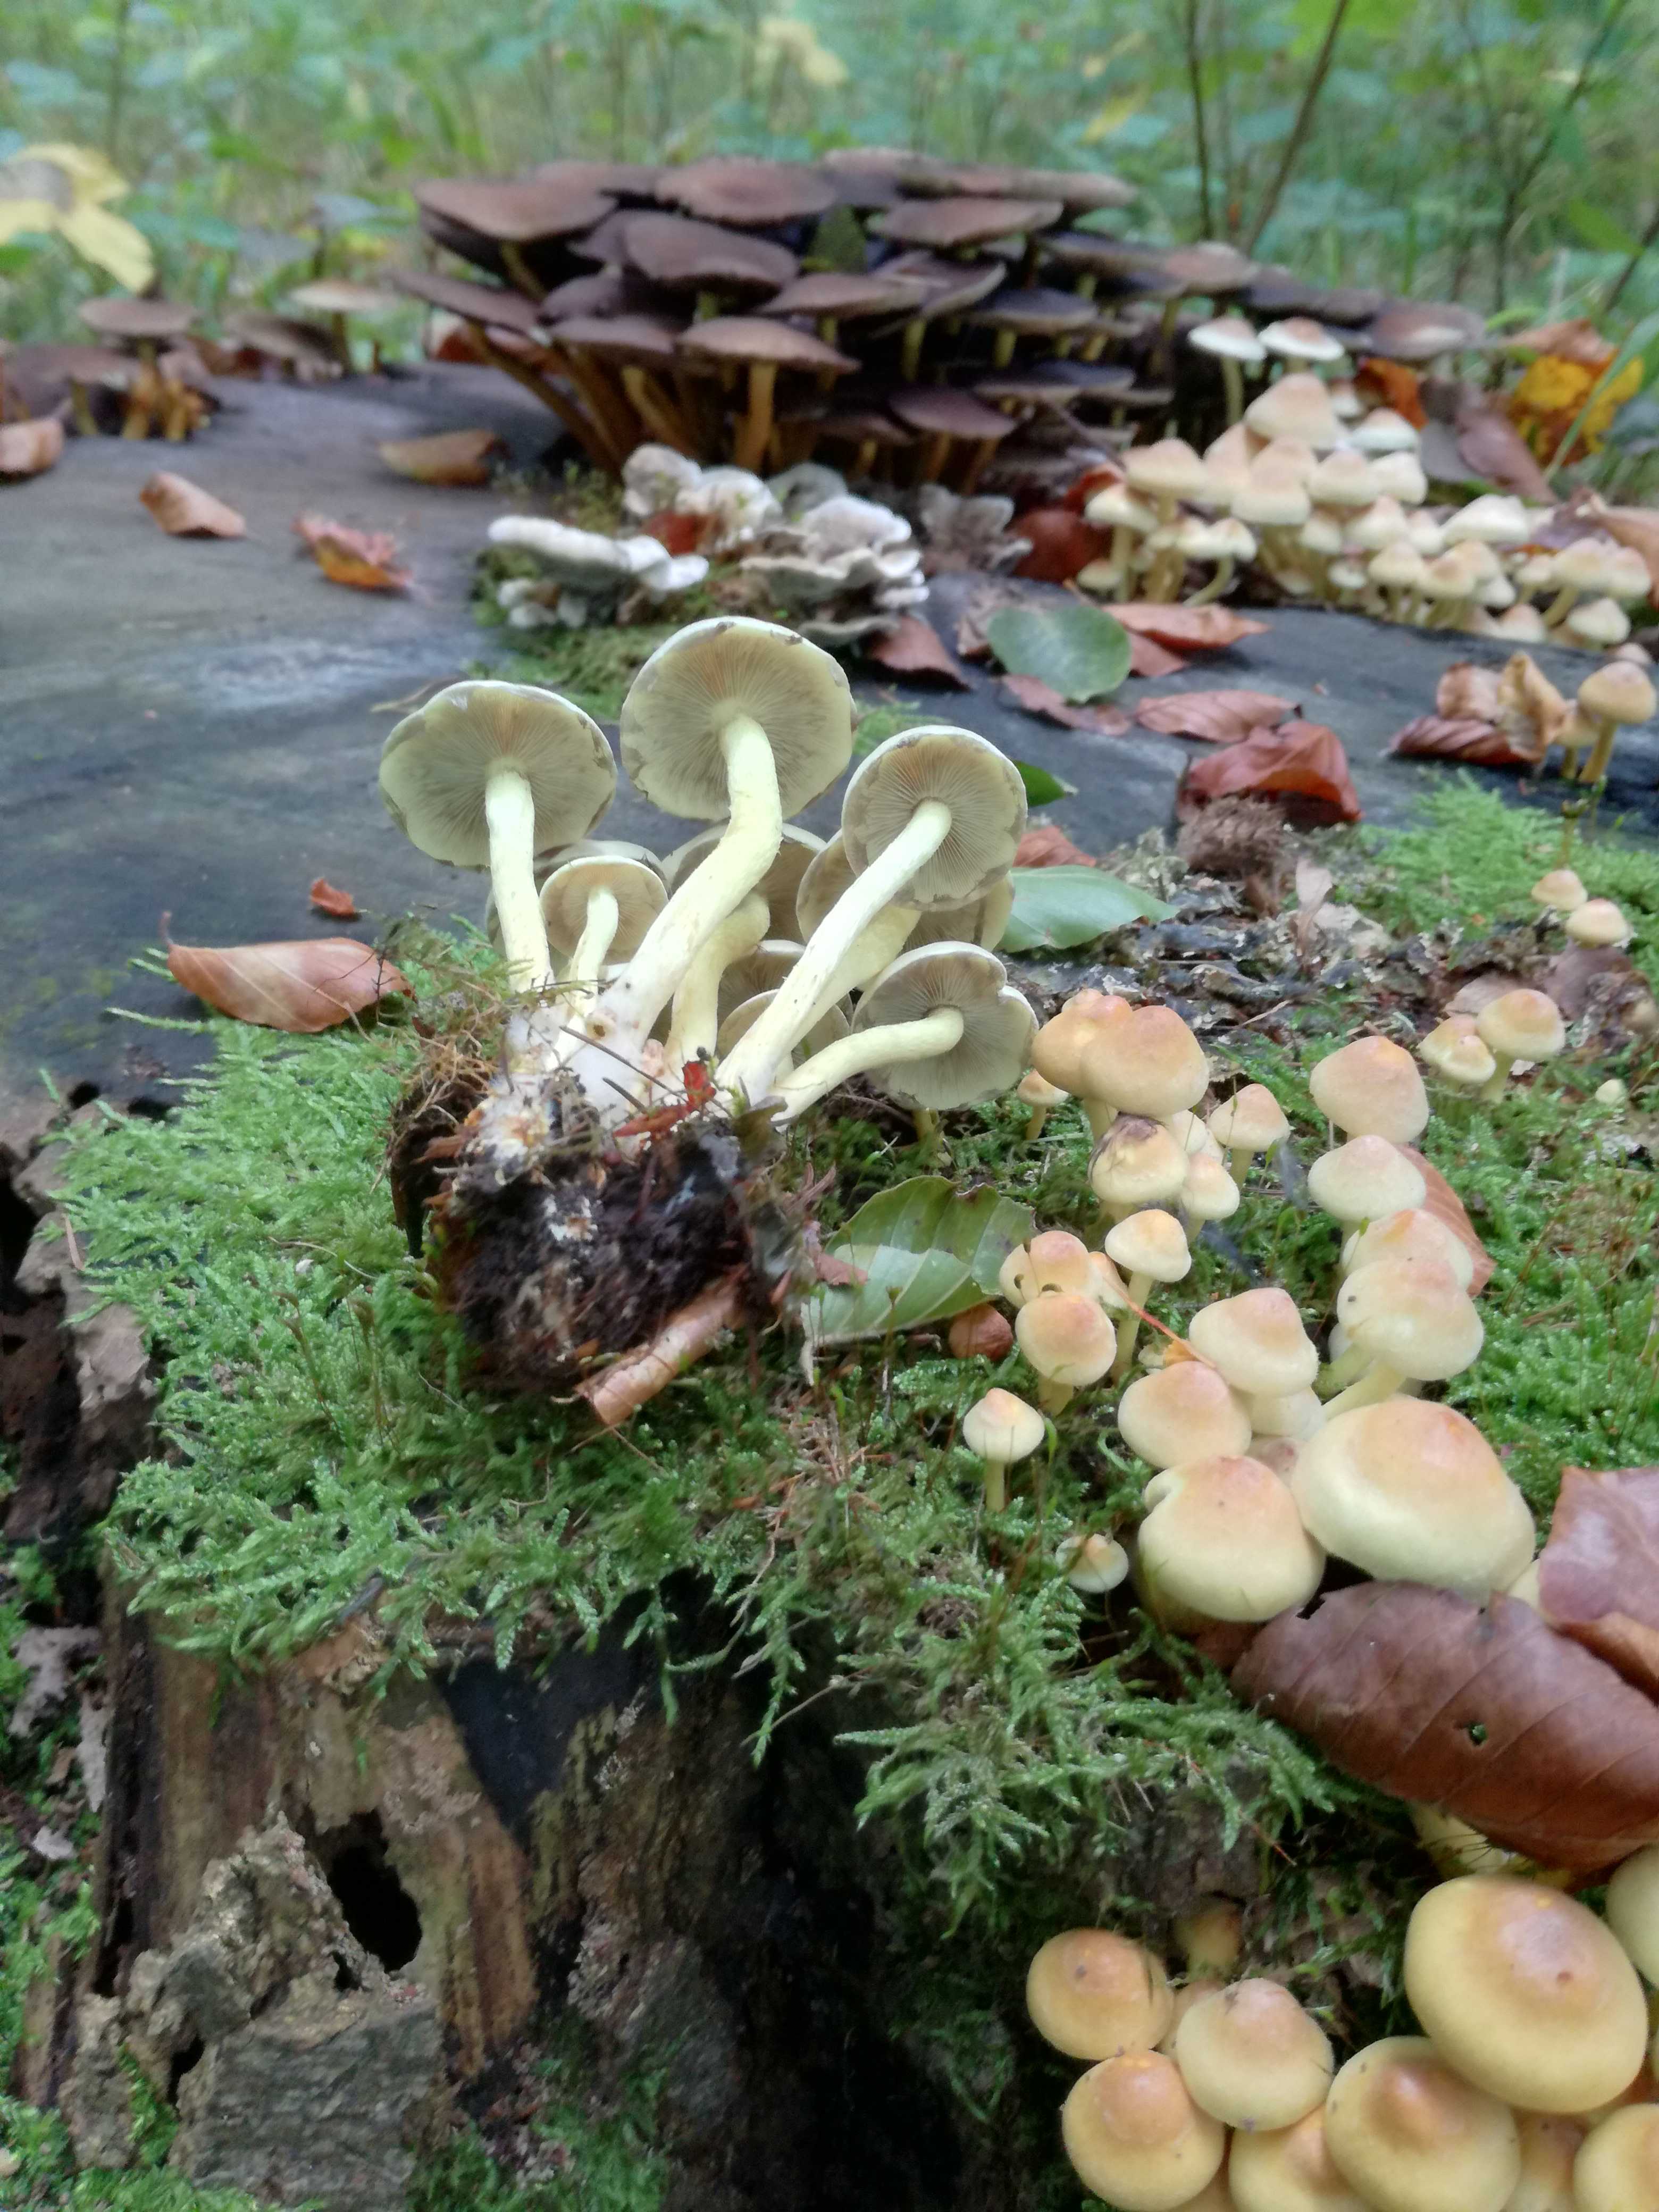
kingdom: Fungi
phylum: Basidiomycota
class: Agaricomycetes
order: Agaricales
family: Strophariaceae
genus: Hypholoma
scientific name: Hypholoma fasciculare
